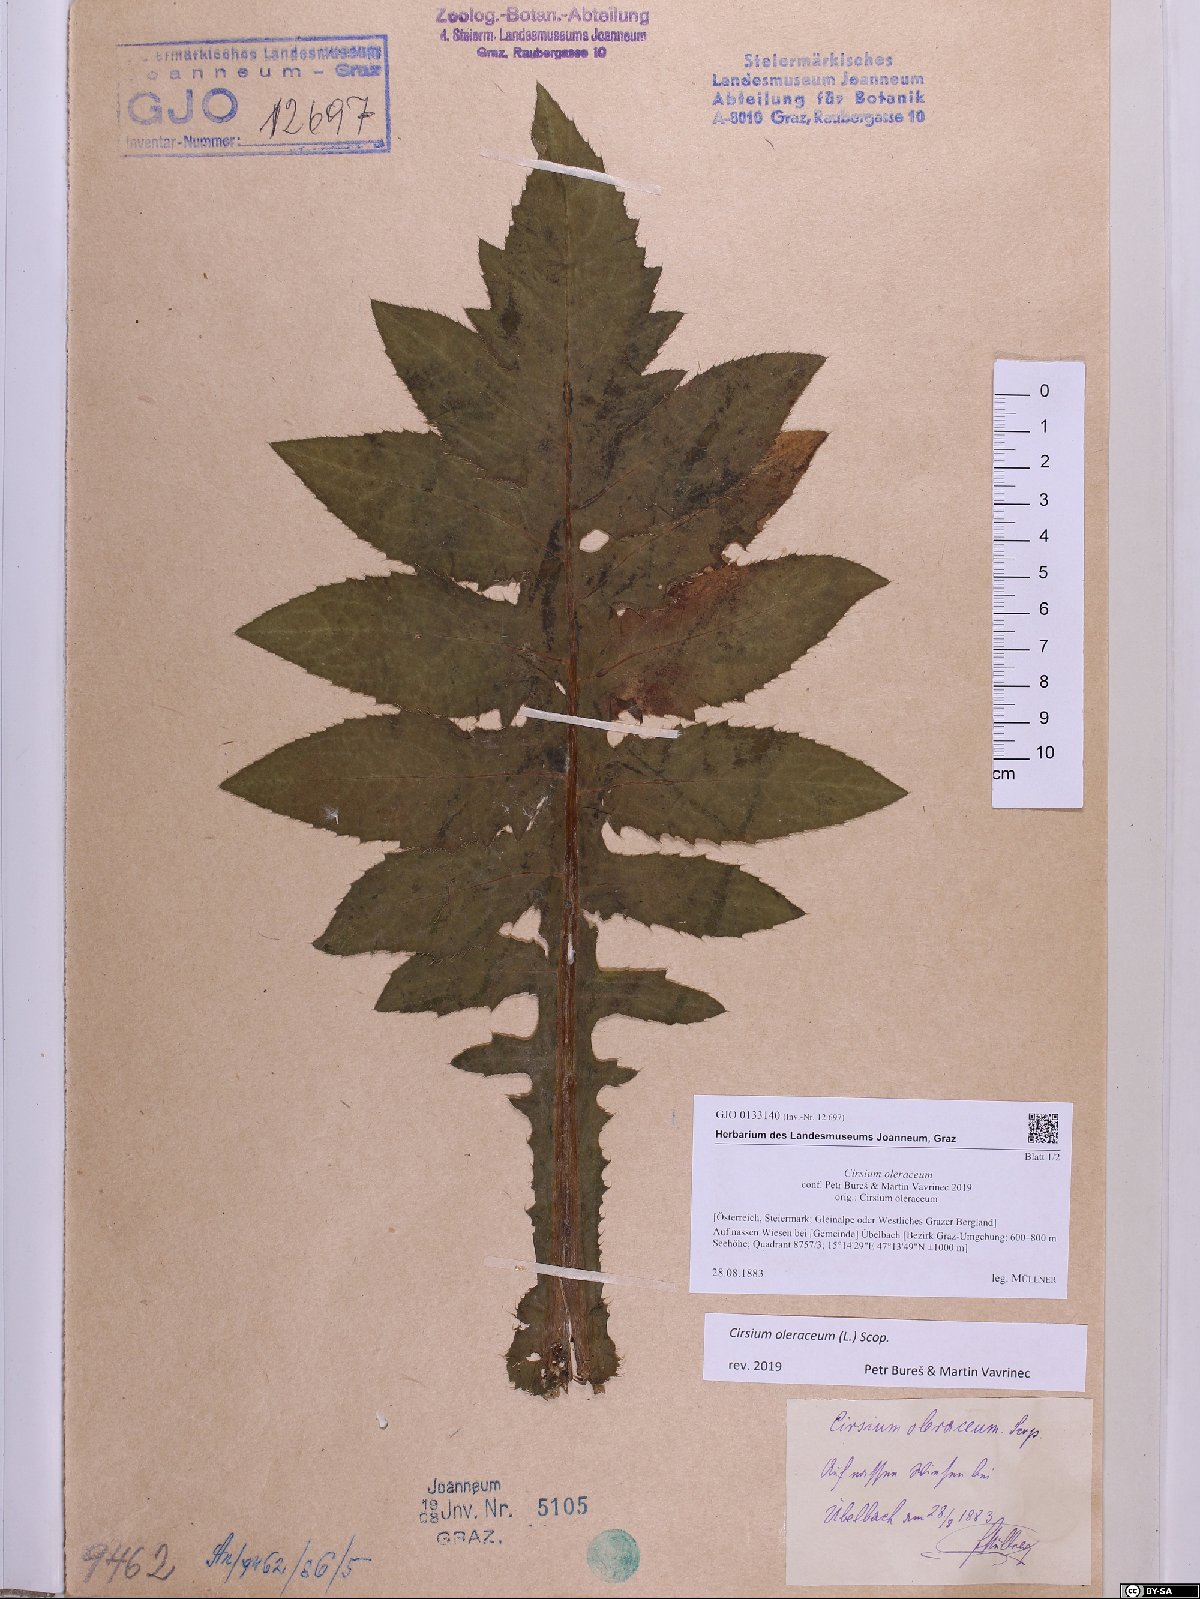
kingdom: Plantae
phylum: Tracheophyta
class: Magnoliopsida
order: Asterales
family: Asteraceae
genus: Cirsium
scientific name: Cirsium oleraceum
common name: Cabbage thistle
